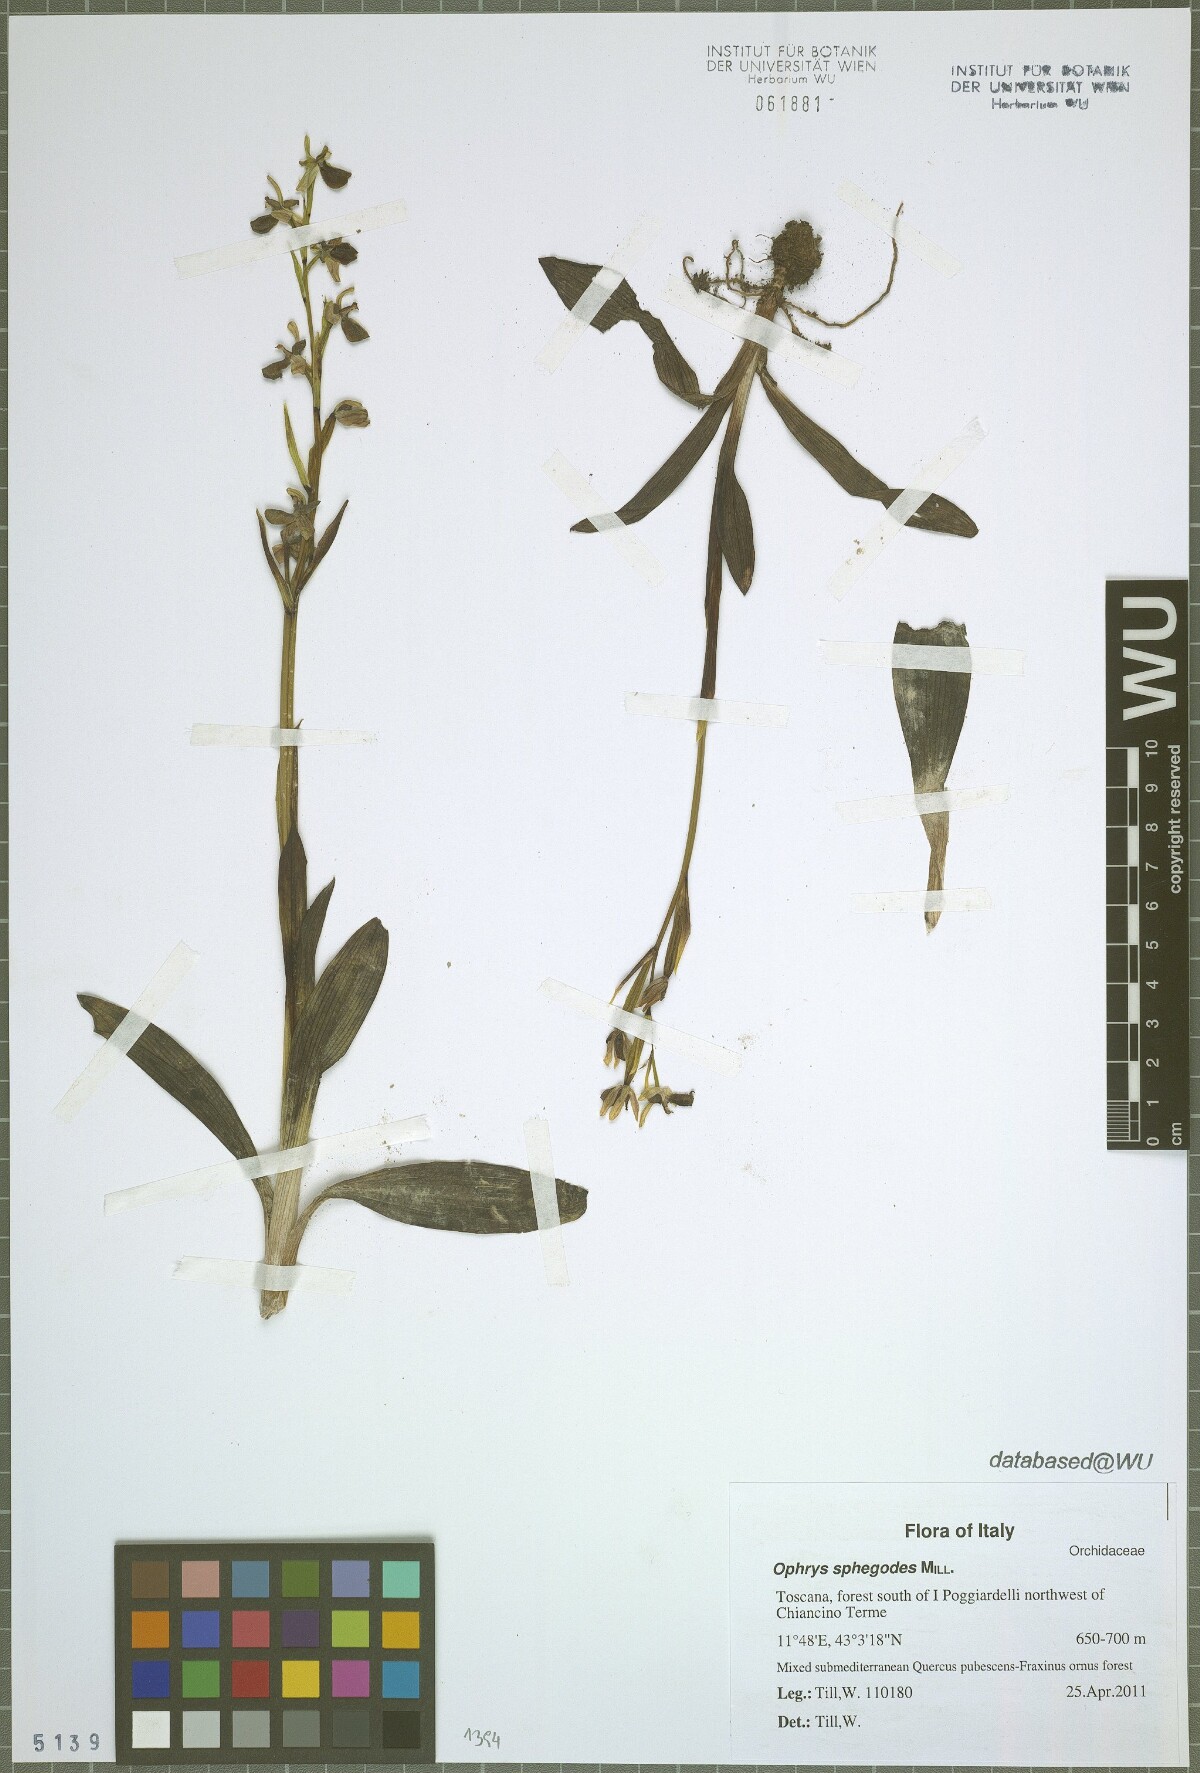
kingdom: Plantae
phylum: Tracheophyta
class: Liliopsida
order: Asparagales
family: Orchidaceae
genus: Ophrys
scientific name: Ophrys sphegodes
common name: Early spider-orchid
